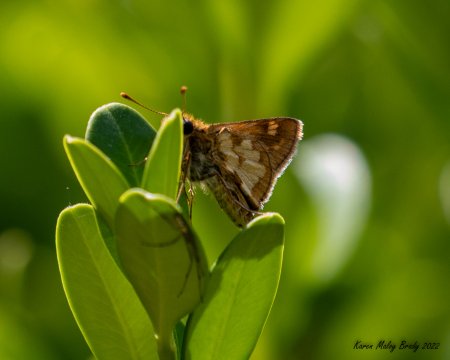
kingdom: Animalia
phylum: Arthropoda
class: Insecta
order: Lepidoptera
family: Hesperiidae
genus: Polites
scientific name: Polites coras
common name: Peck's Skipper
